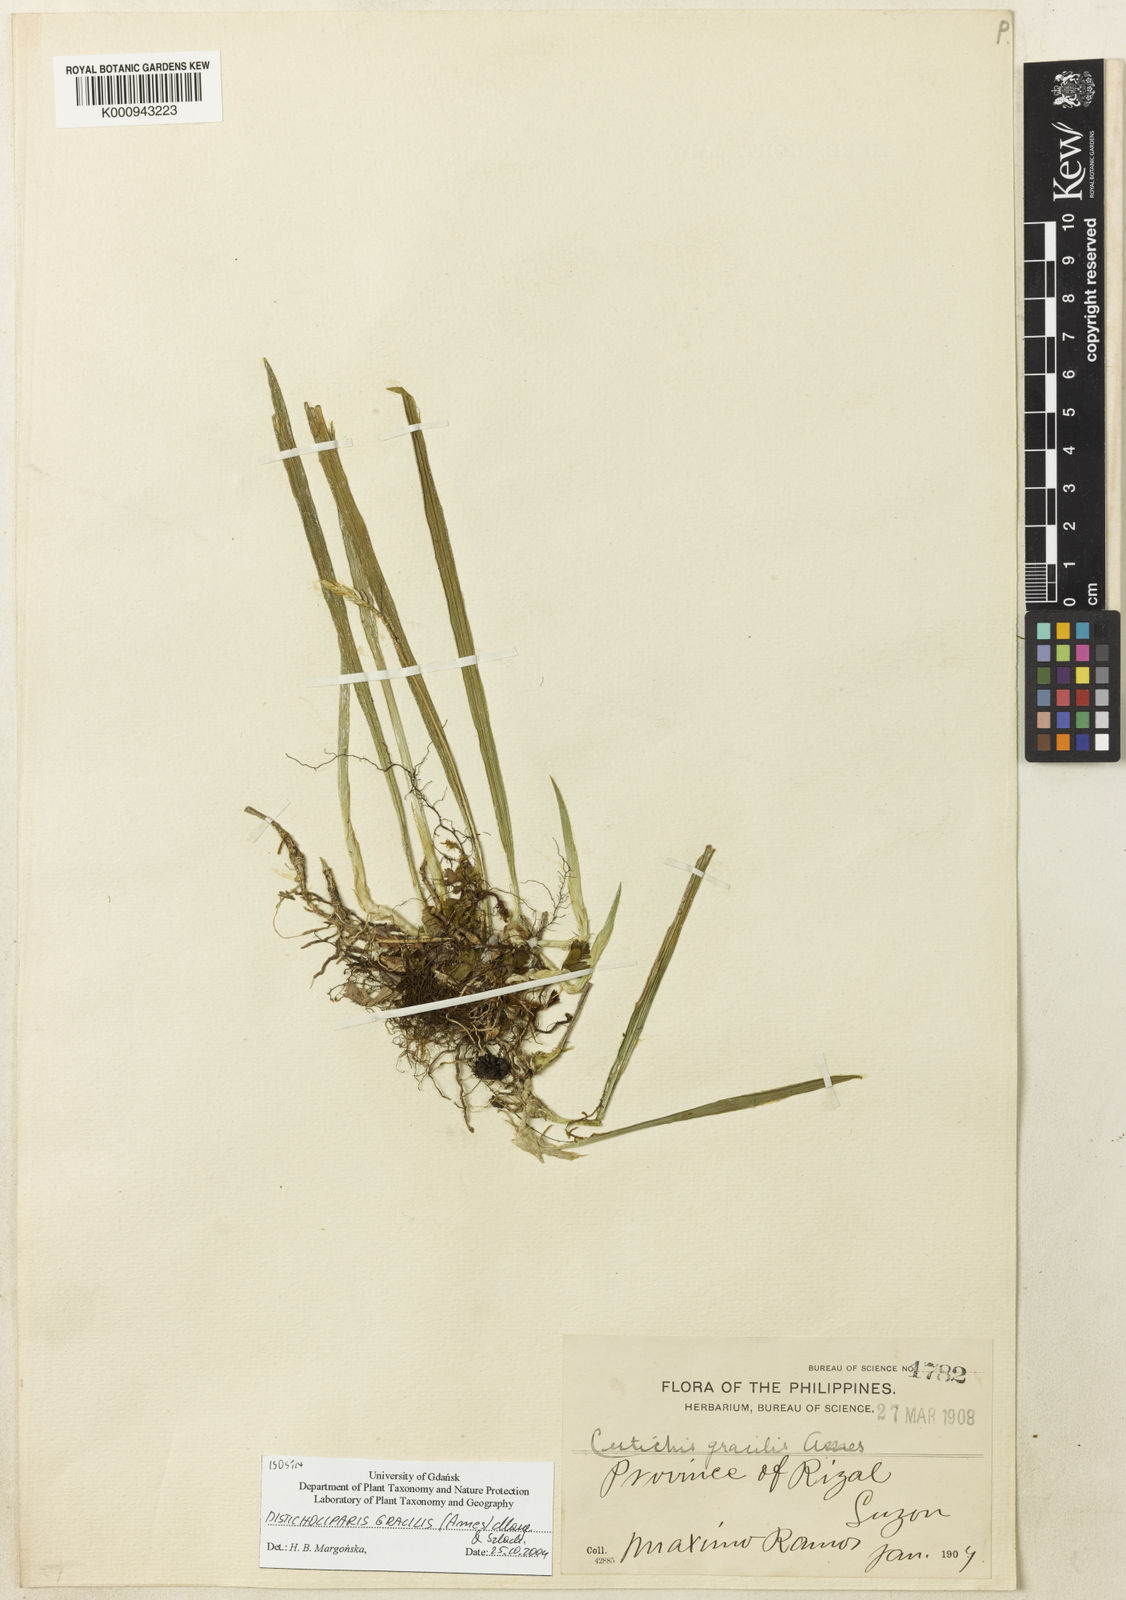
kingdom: Plantae
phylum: Tracheophyta
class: Liliopsida
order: Asparagales
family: Orchidaceae
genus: Liparis
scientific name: Liparis amesiana
